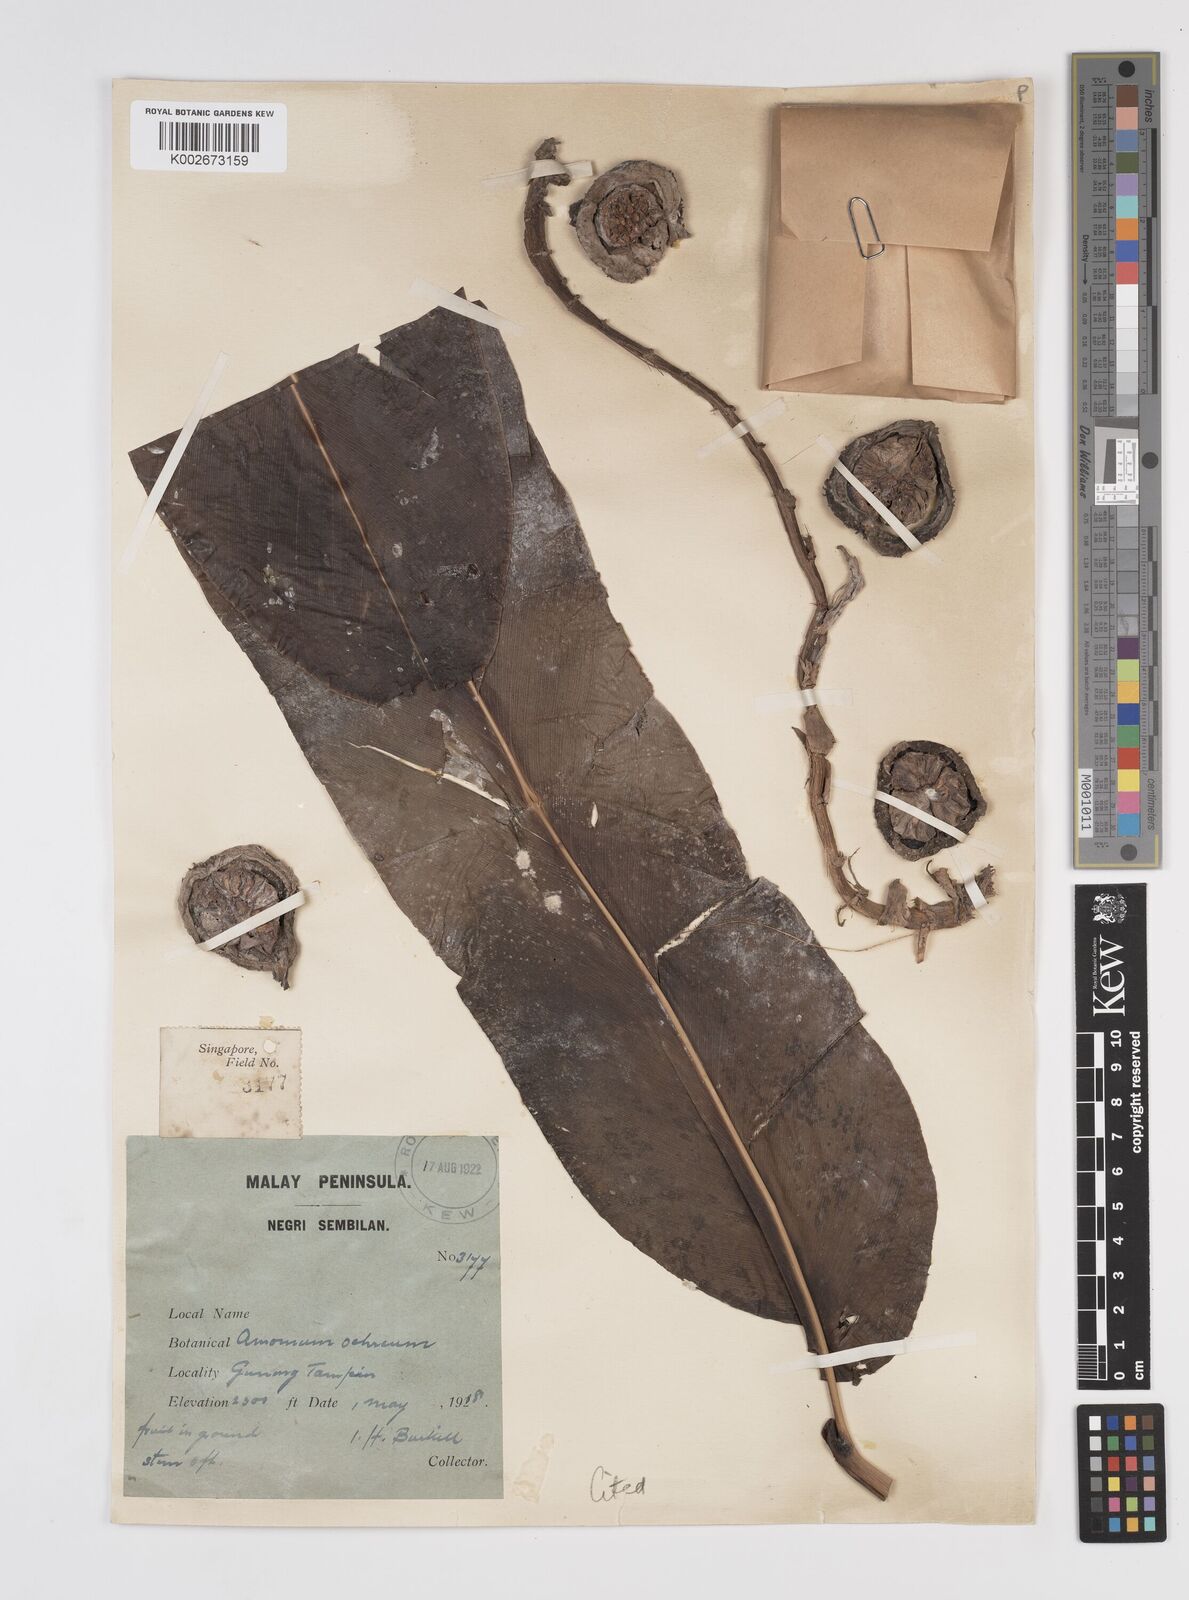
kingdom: Plantae
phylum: Tracheophyta
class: Liliopsida
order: Zingiberales
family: Zingiberaceae
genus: Meistera
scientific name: Meistera ochrea
